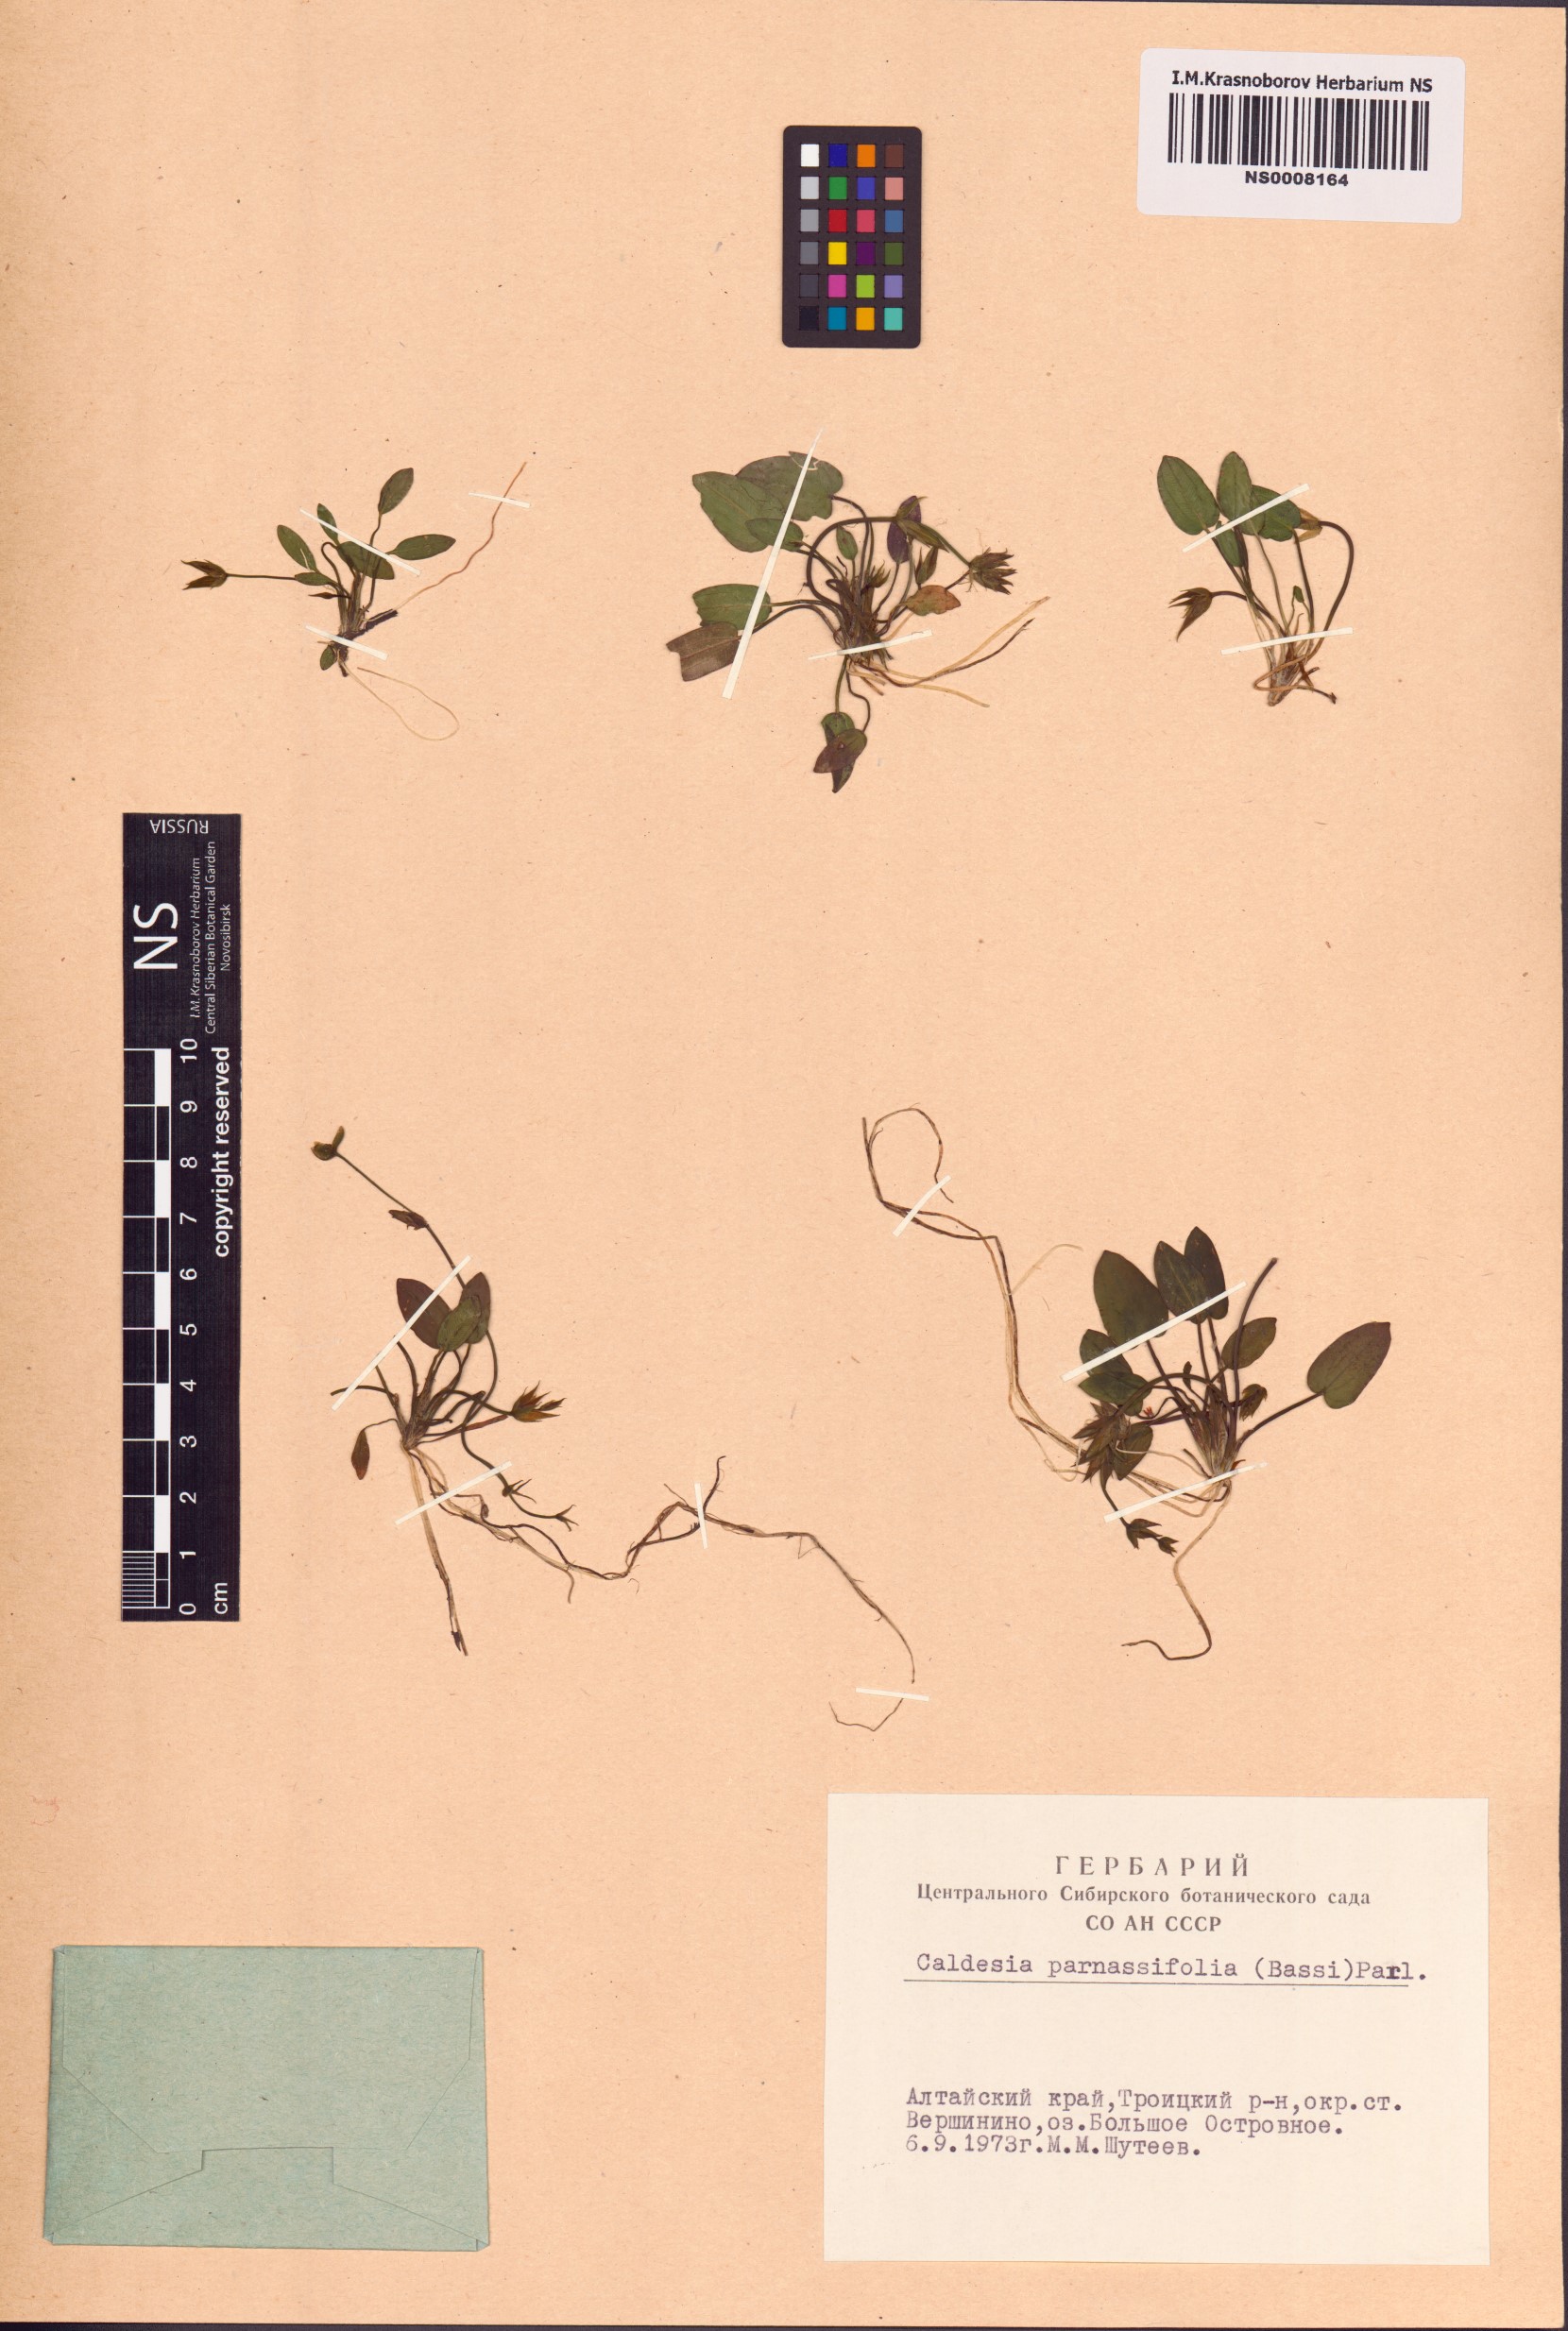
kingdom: Plantae
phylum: Tracheophyta
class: Liliopsida
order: Alismatales
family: Alismataceae
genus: Caldesia
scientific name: Caldesia parnassifolia
